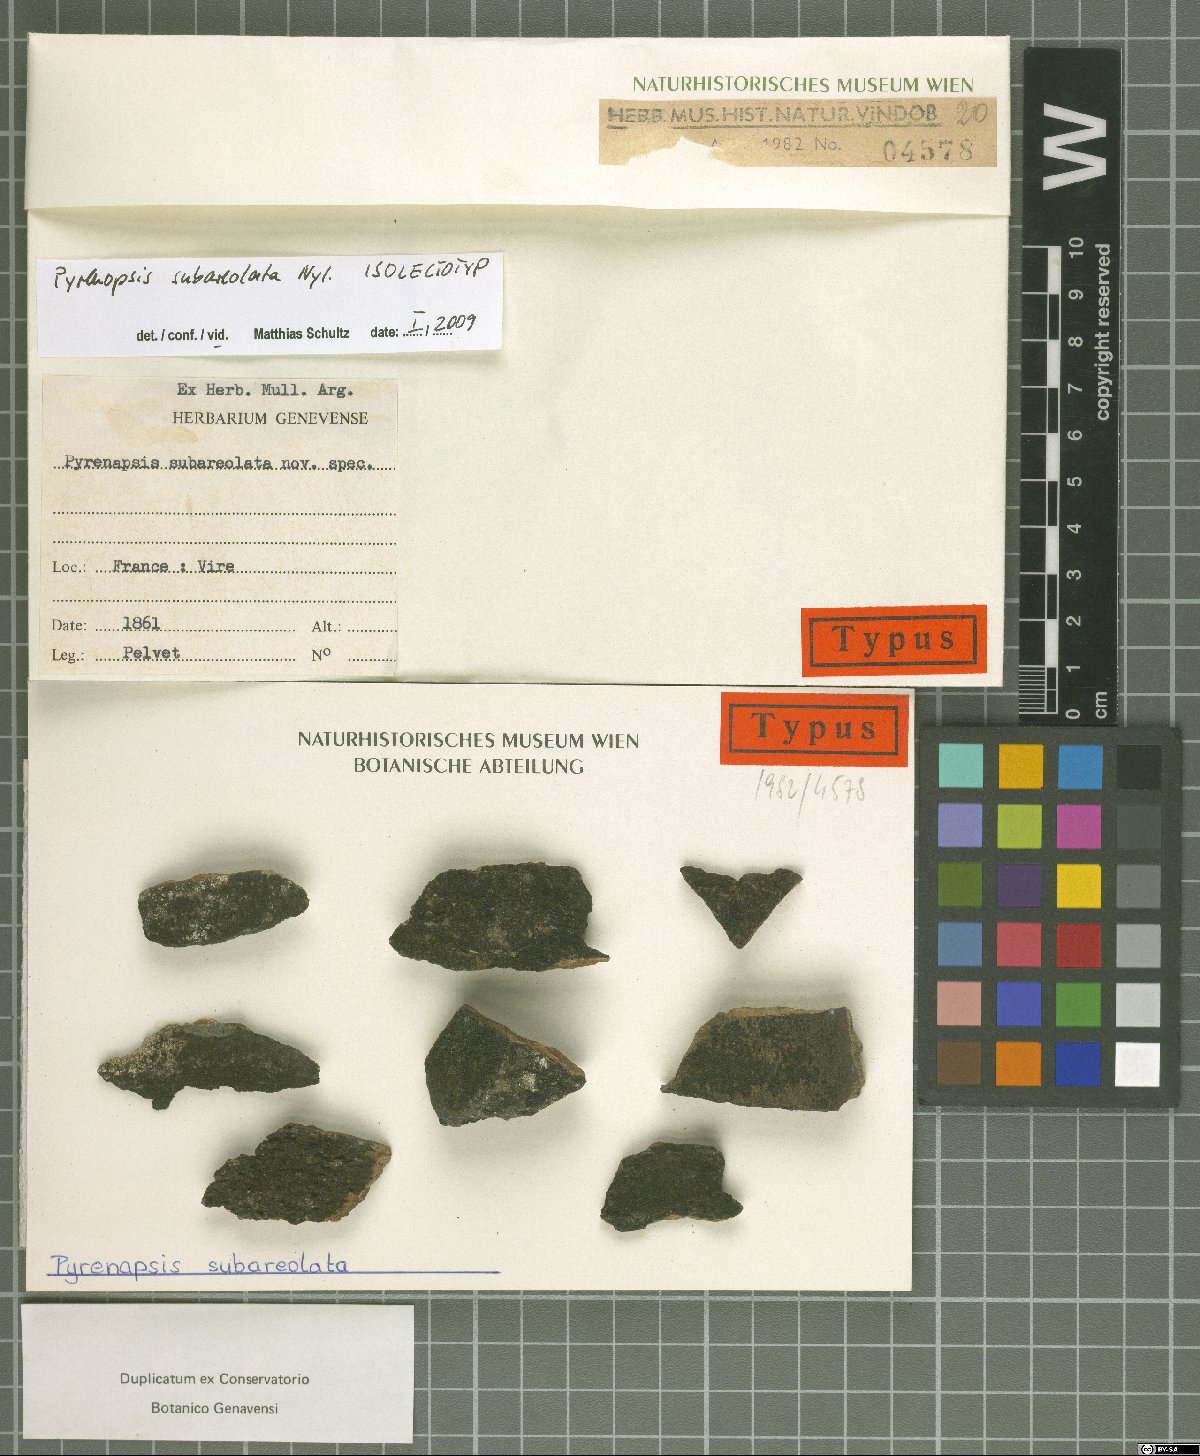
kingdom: Fungi
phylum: Ascomycota
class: Lichinomycetes
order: Lichinales
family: Lichinaceae
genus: Pyrenopsis
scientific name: Pyrenopsis subareolata
